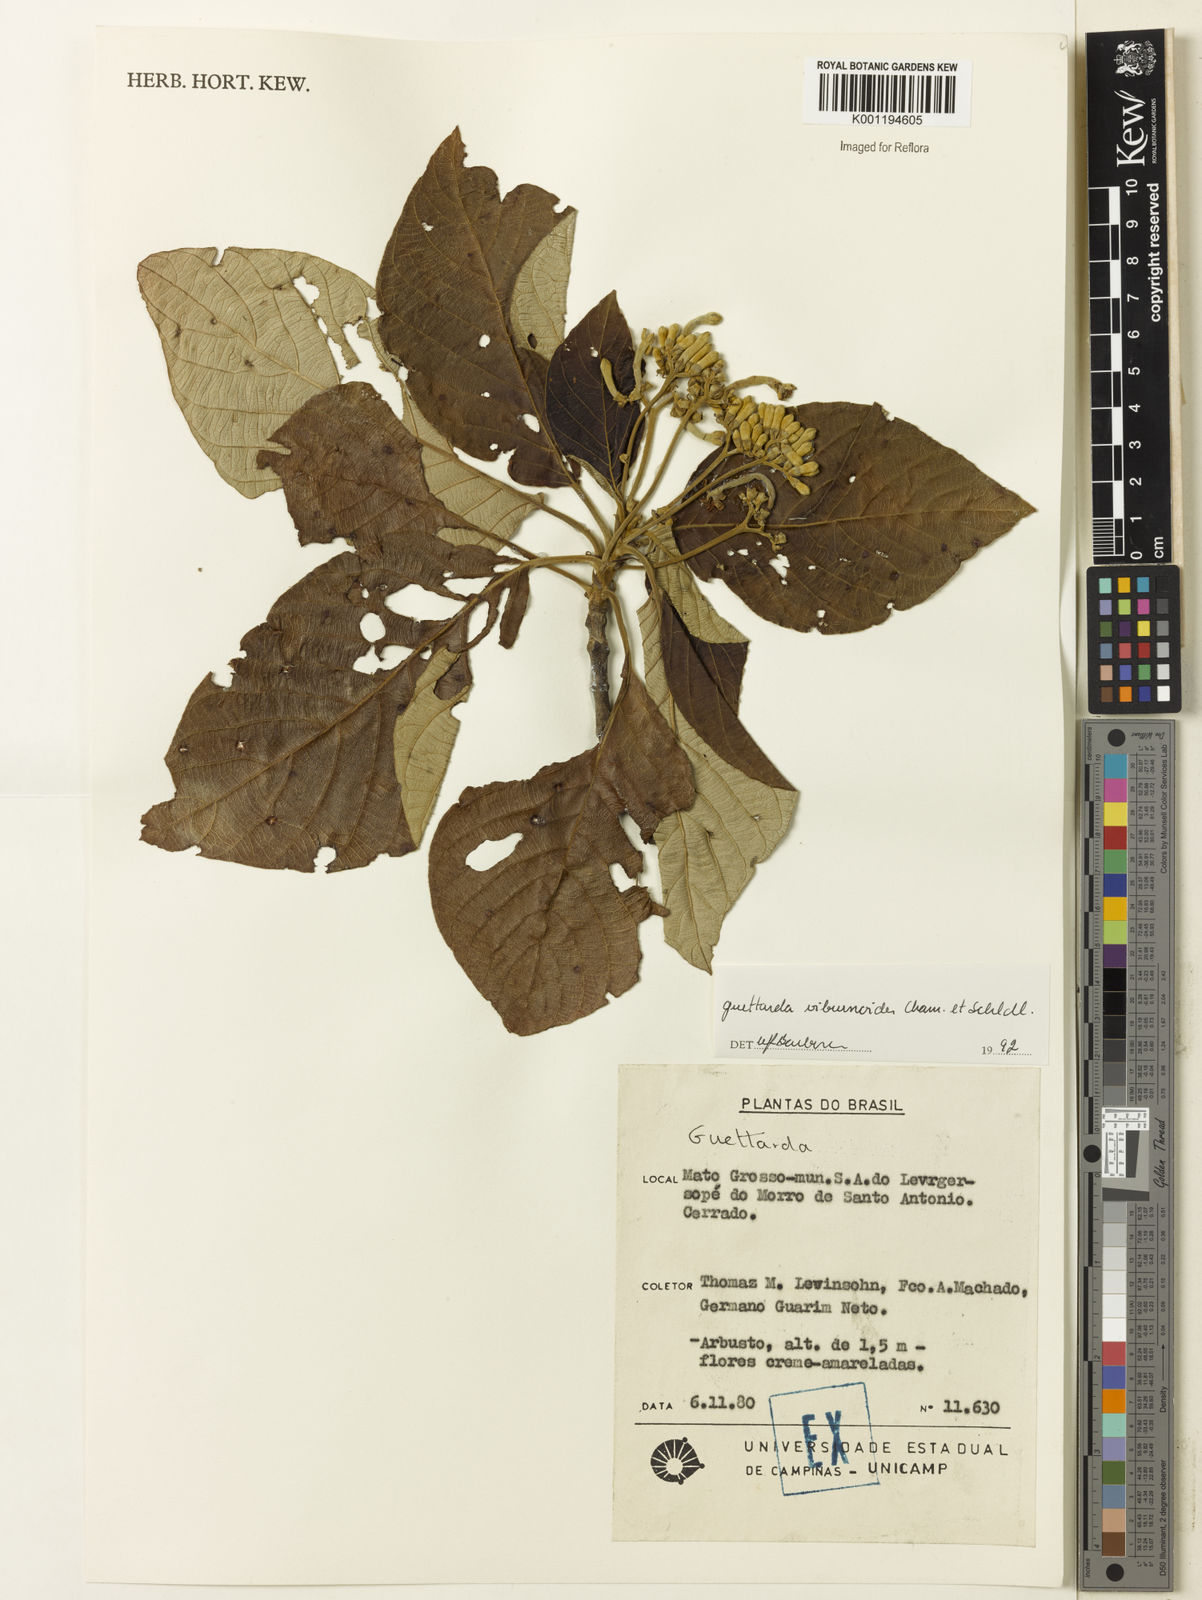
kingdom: Plantae
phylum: Tracheophyta
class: Magnoliopsida
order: Gentianales
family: Rubiaceae
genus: Guettarda
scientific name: Guettarda viburnoides
